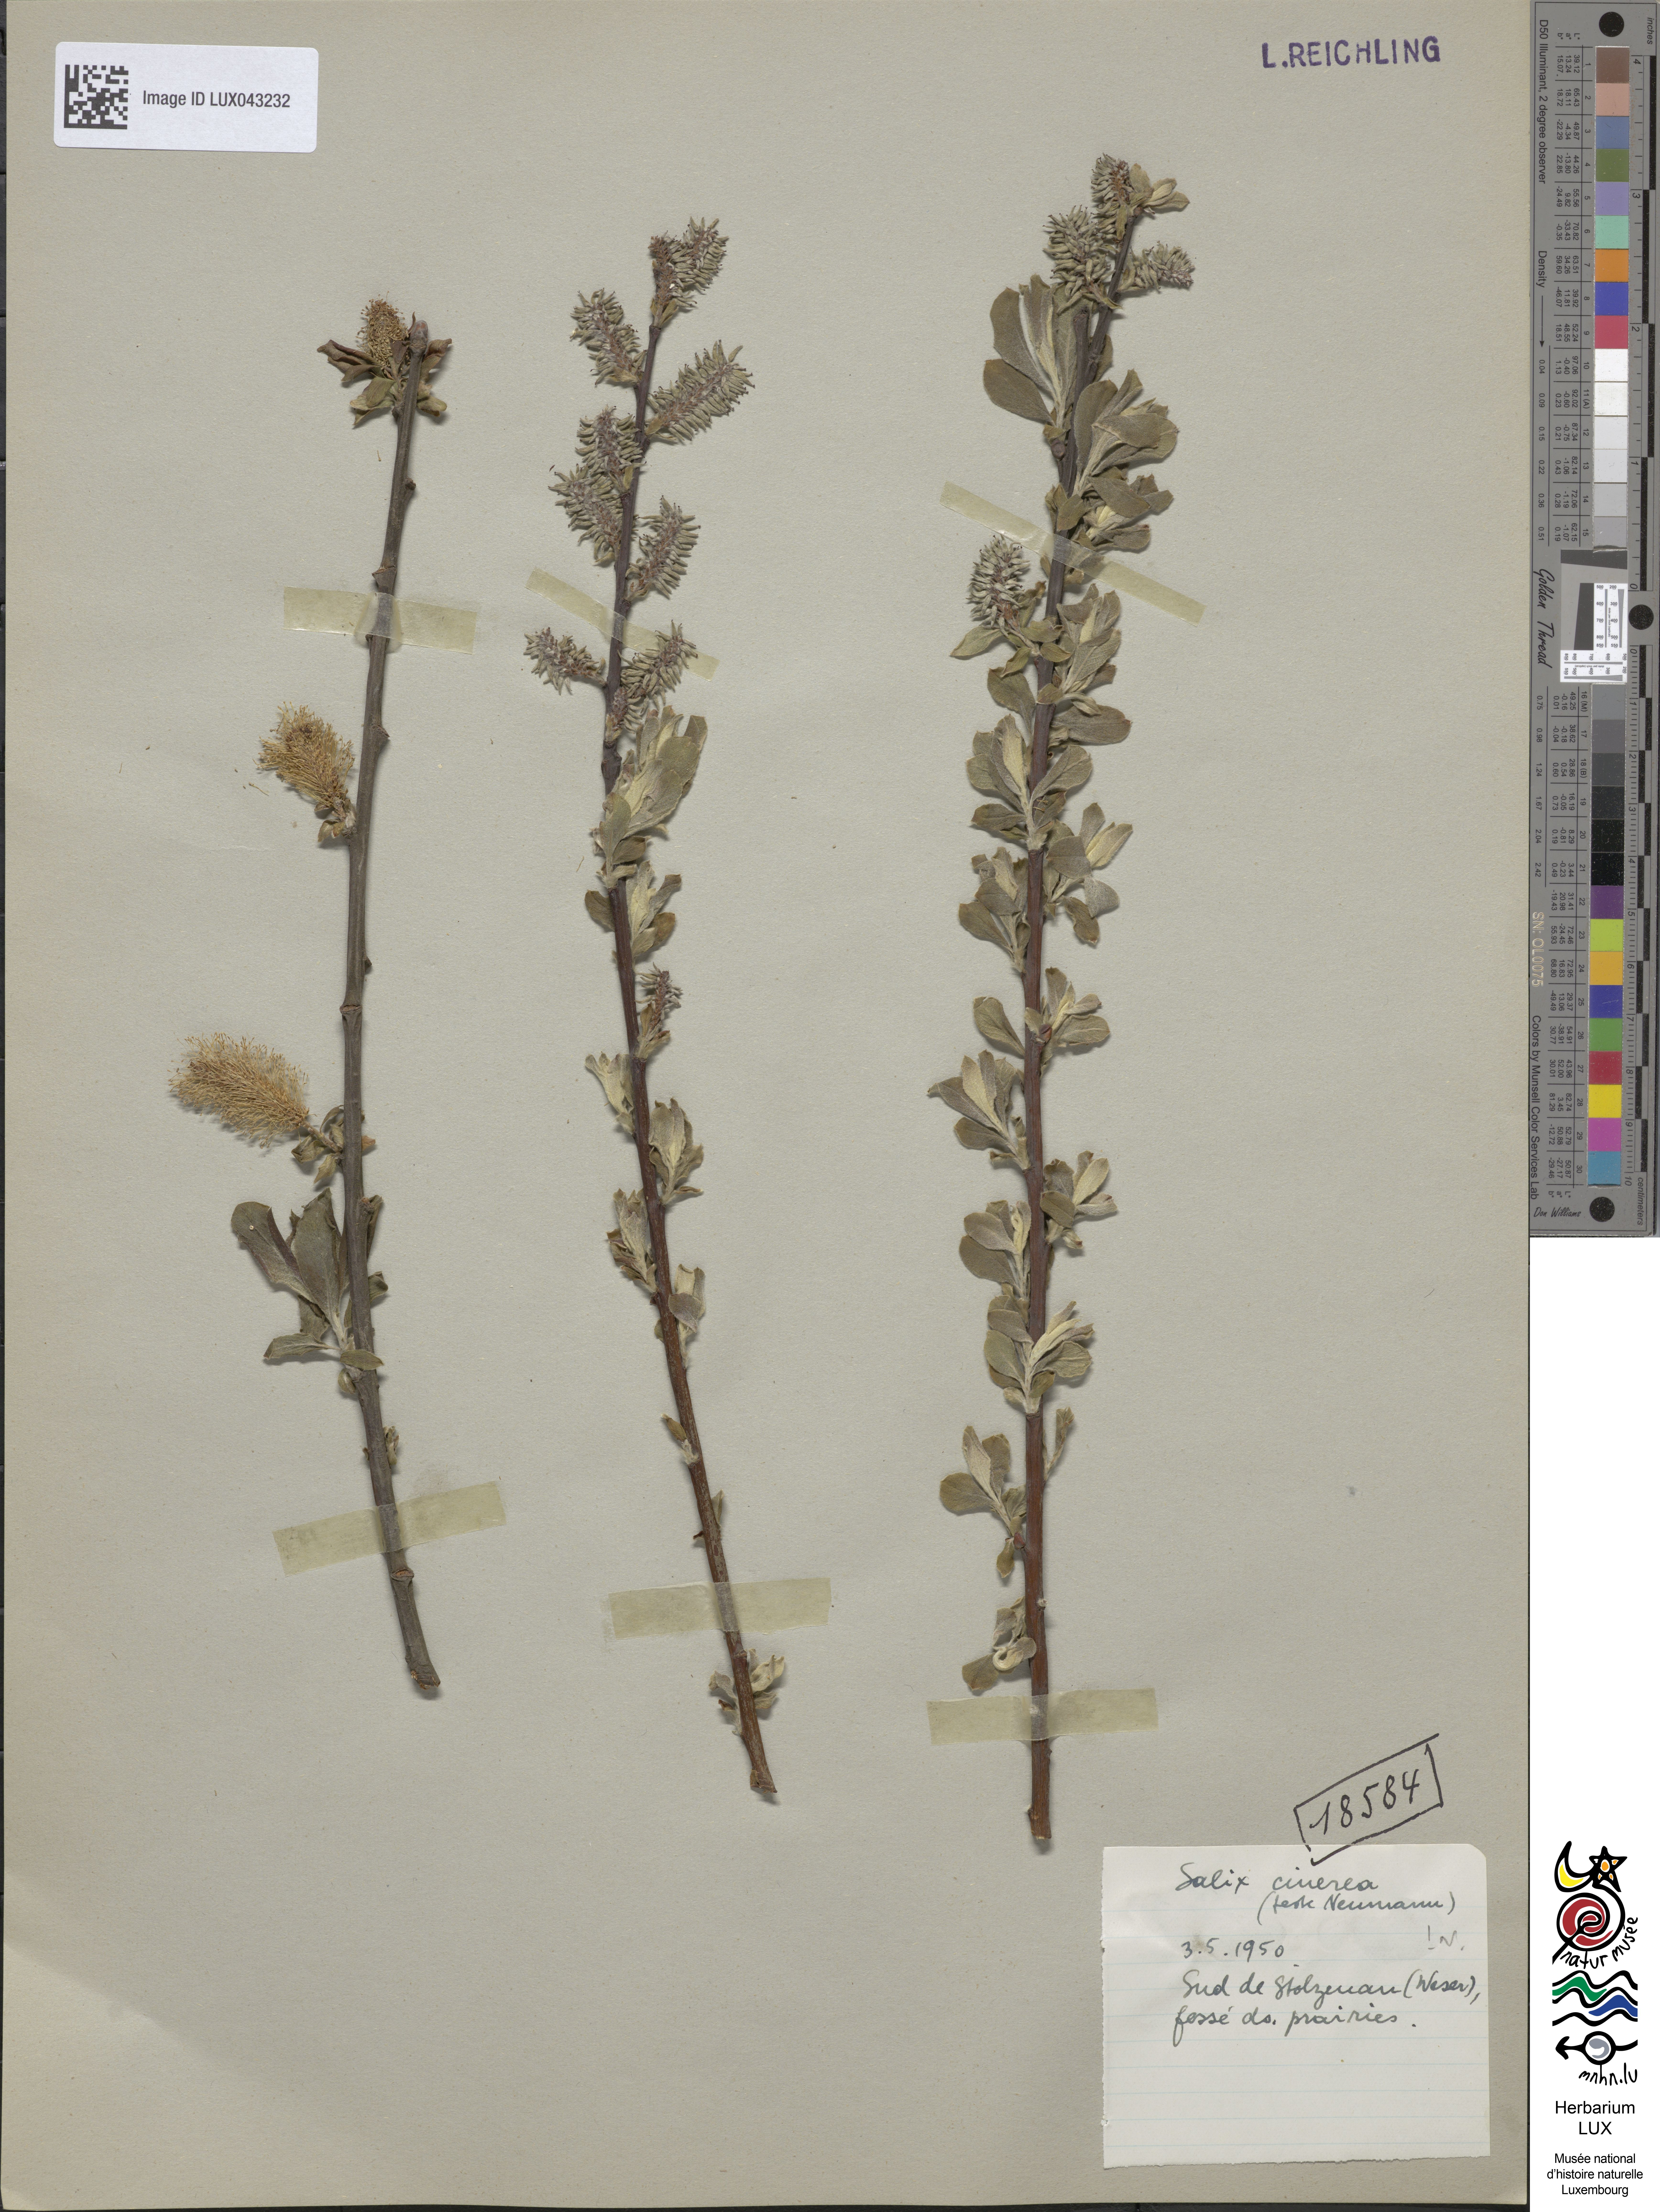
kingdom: Plantae
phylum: Tracheophyta
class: Magnoliopsida
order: Malpighiales
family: Salicaceae
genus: Salix
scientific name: Salix cinerea
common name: Common sallow
